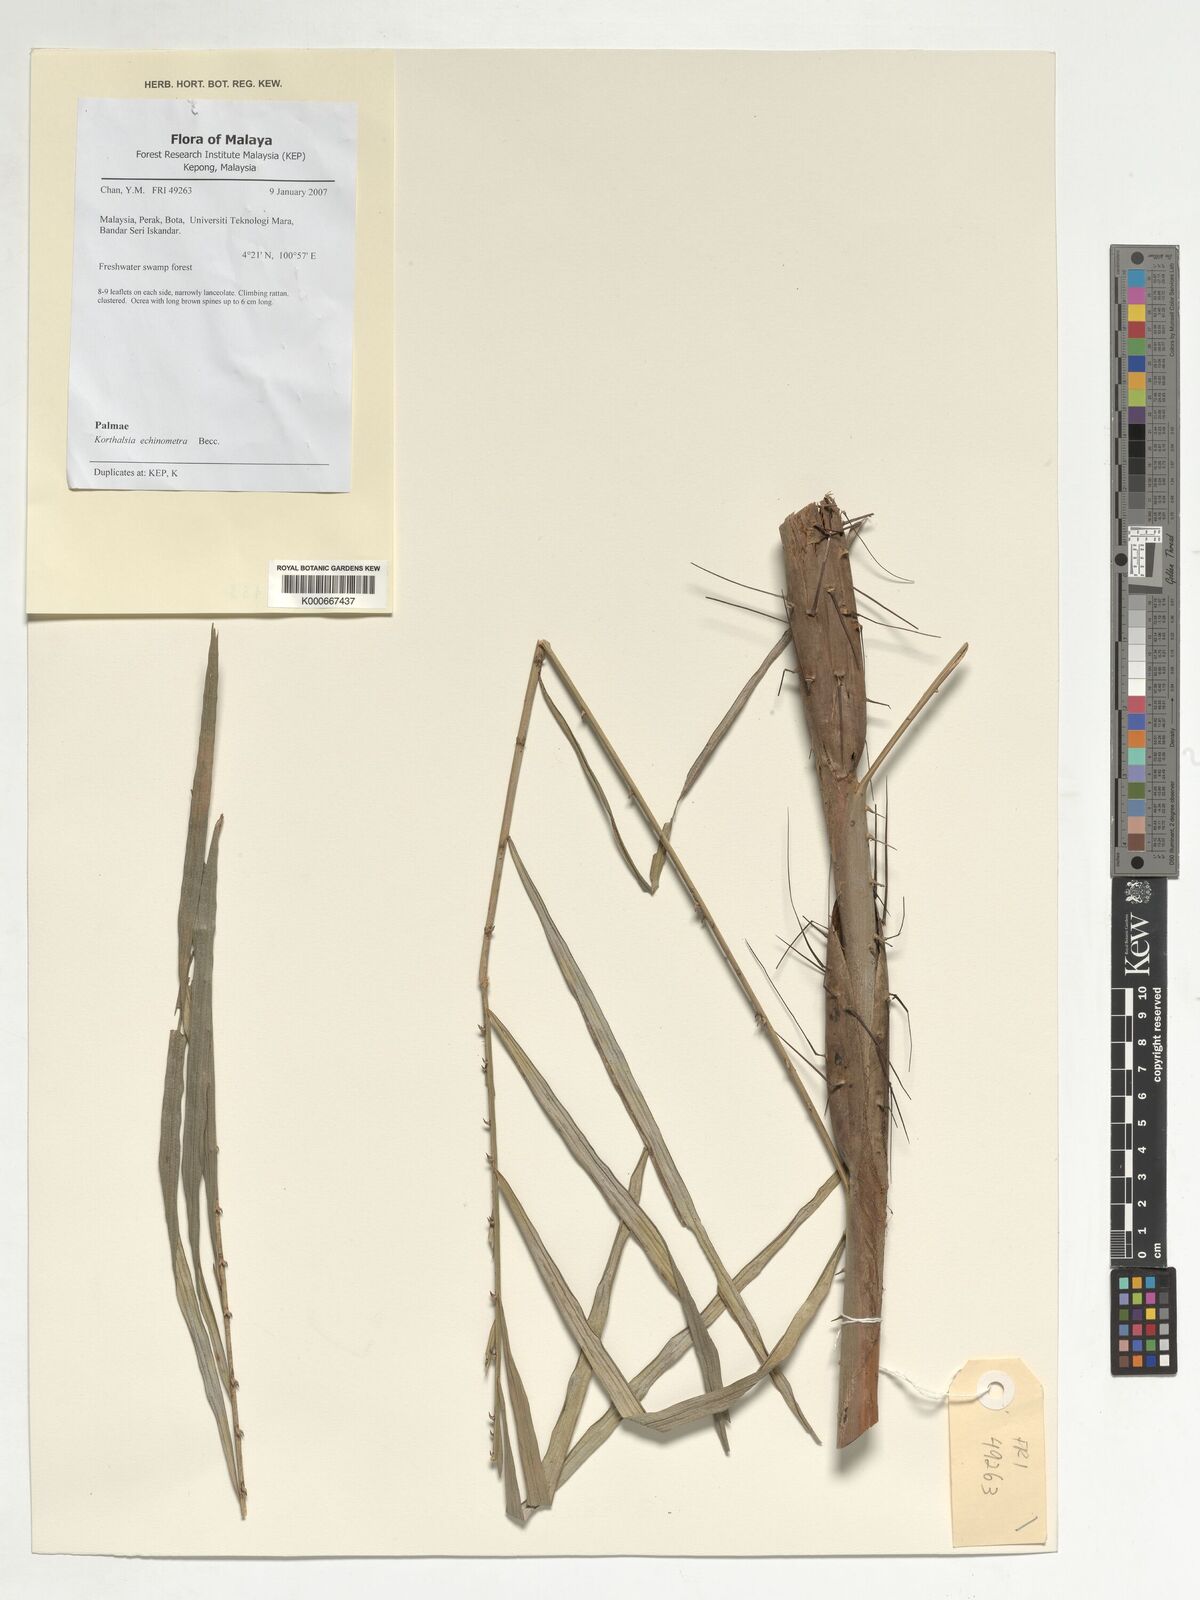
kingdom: Plantae
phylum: Tracheophyta
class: Liliopsida
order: Arecales
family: Arecaceae
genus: Korthalsia
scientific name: Korthalsia echinometra
